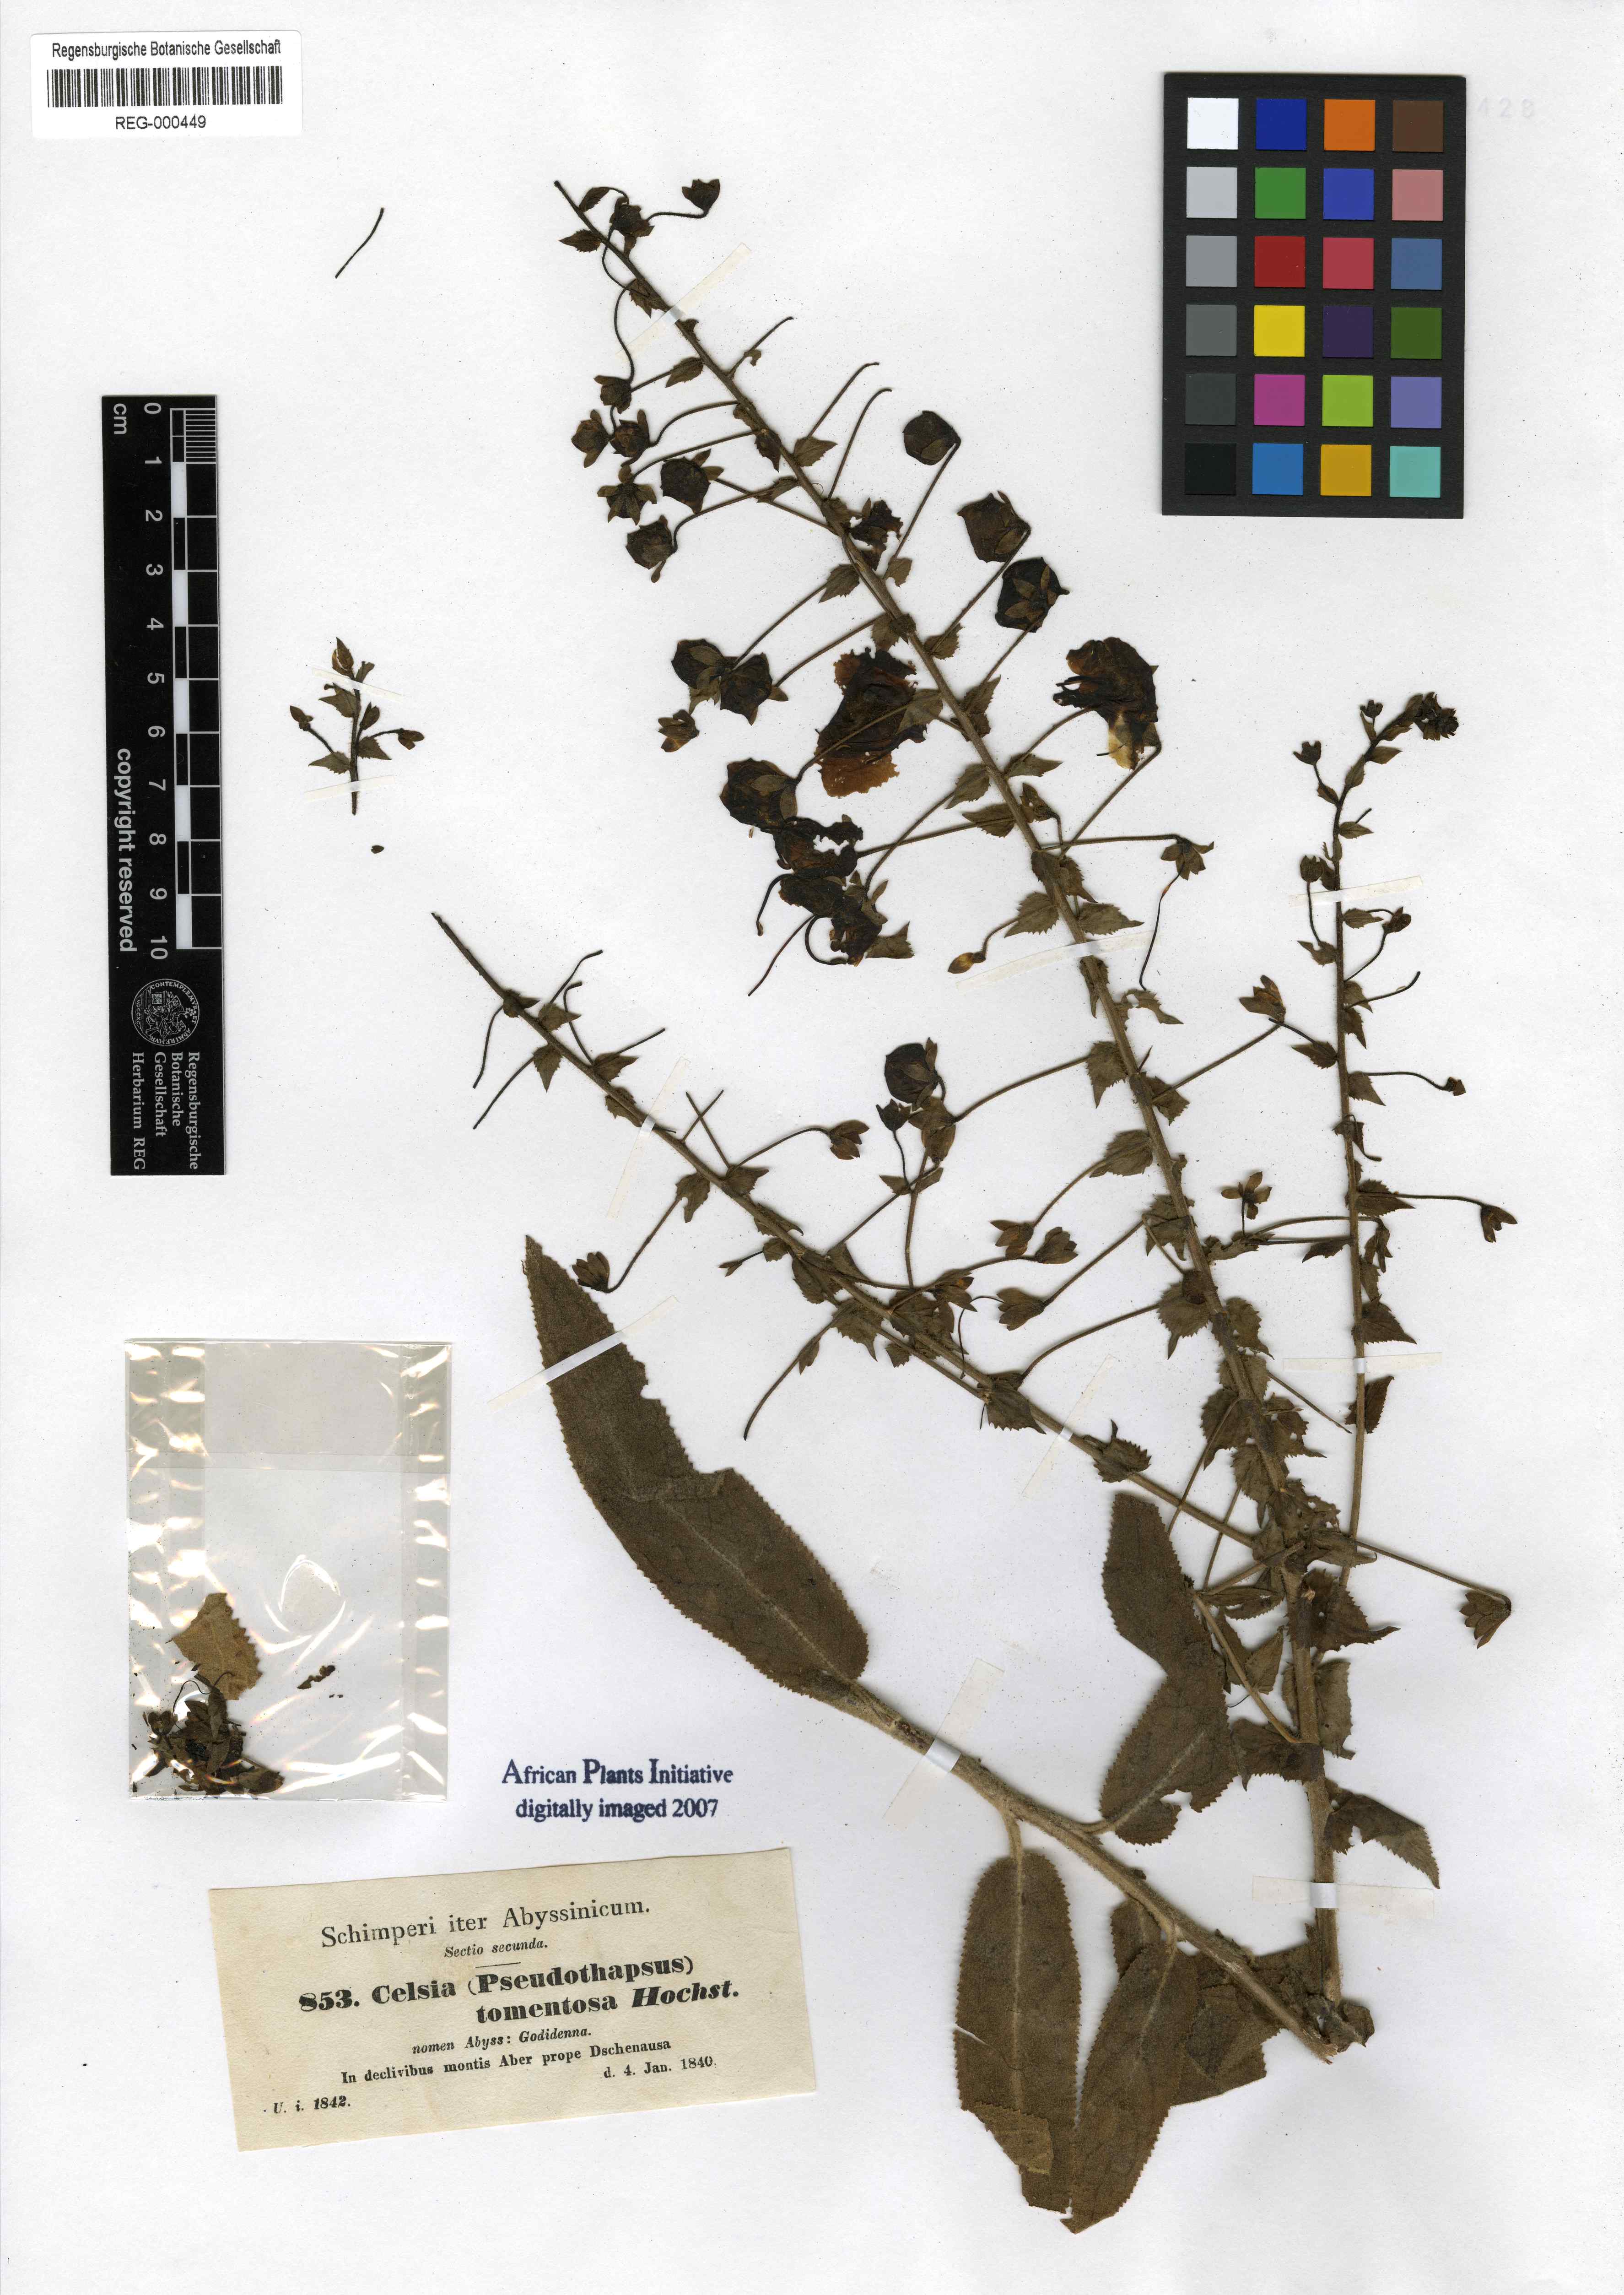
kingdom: Plantae
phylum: Tracheophyta
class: Magnoliopsida
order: Lamiales
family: Scrophulariaceae
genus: Verbascum
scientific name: Verbascum benthamianum
